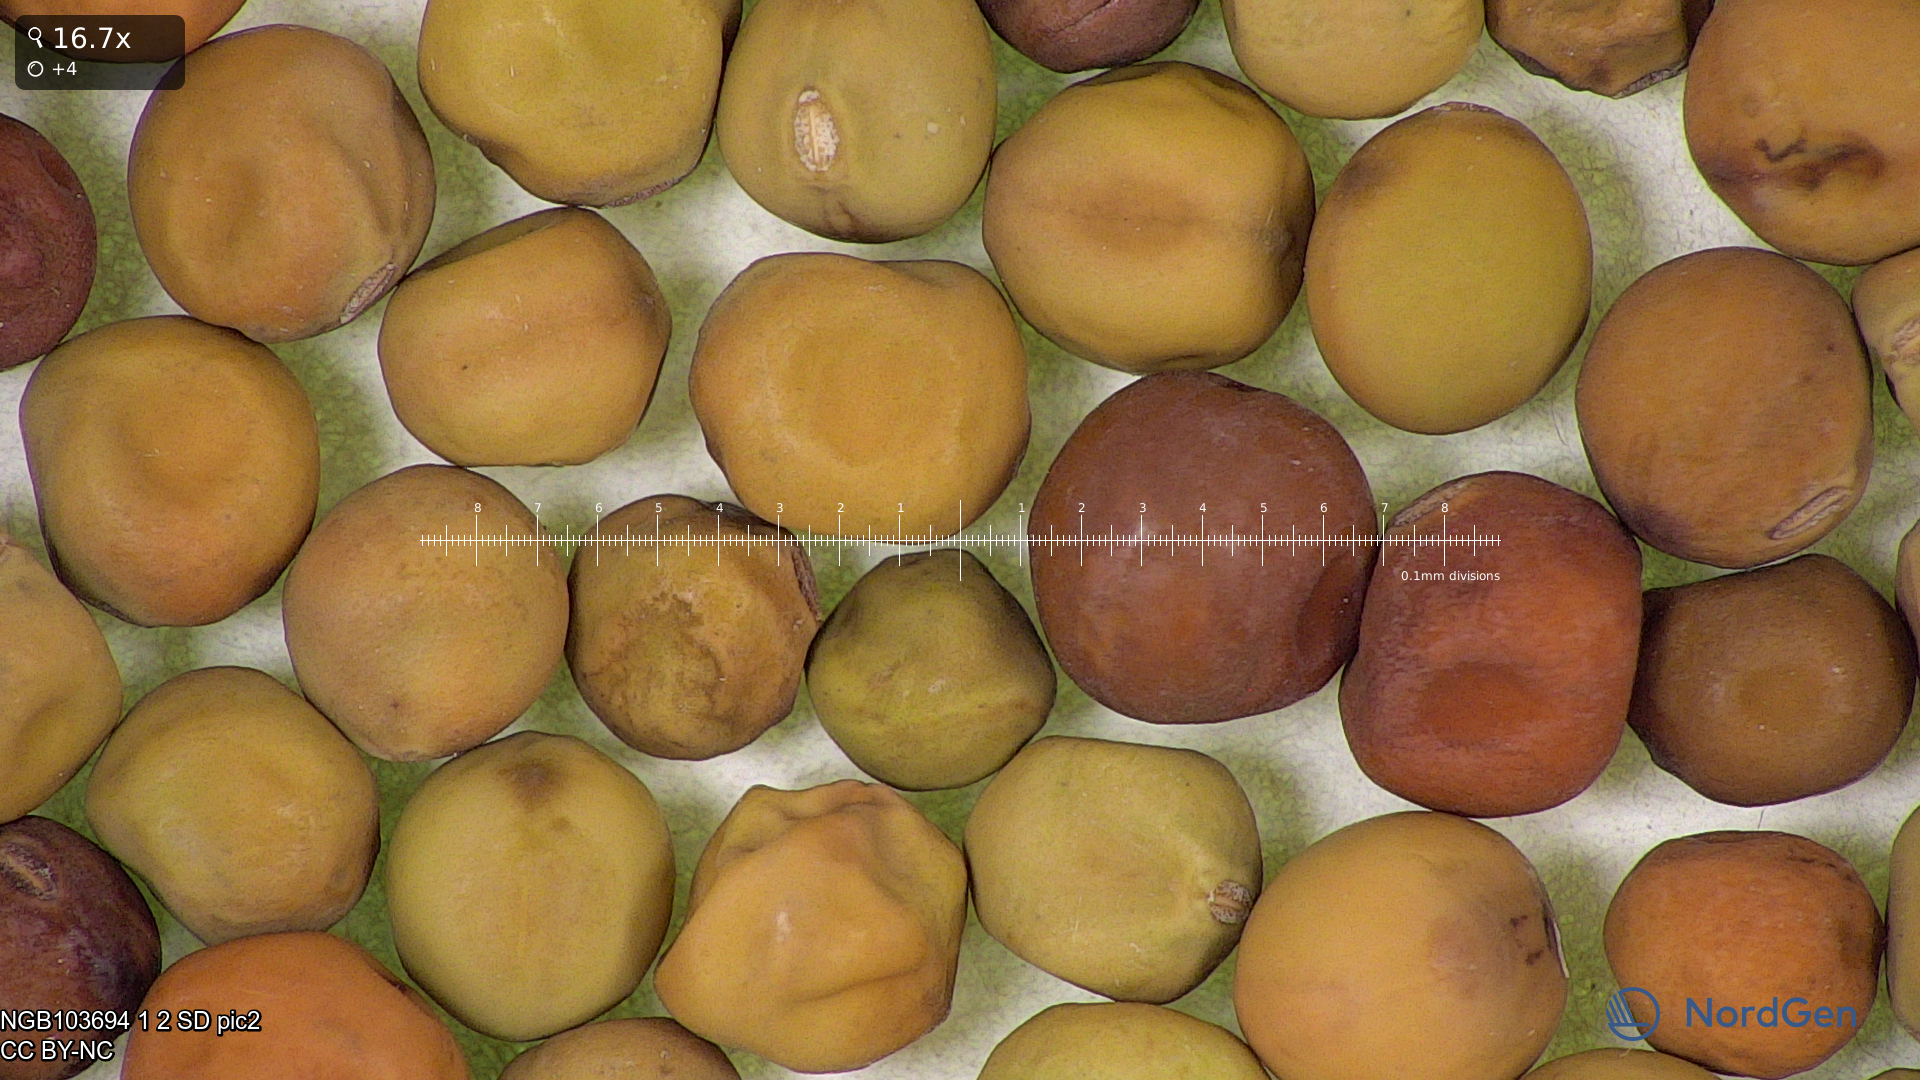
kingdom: Plantae
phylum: Tracheophyta
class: Magnoliopsida
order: Fabales
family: Fabaceae
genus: Lathyrus
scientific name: Lathyrus oleraceus
